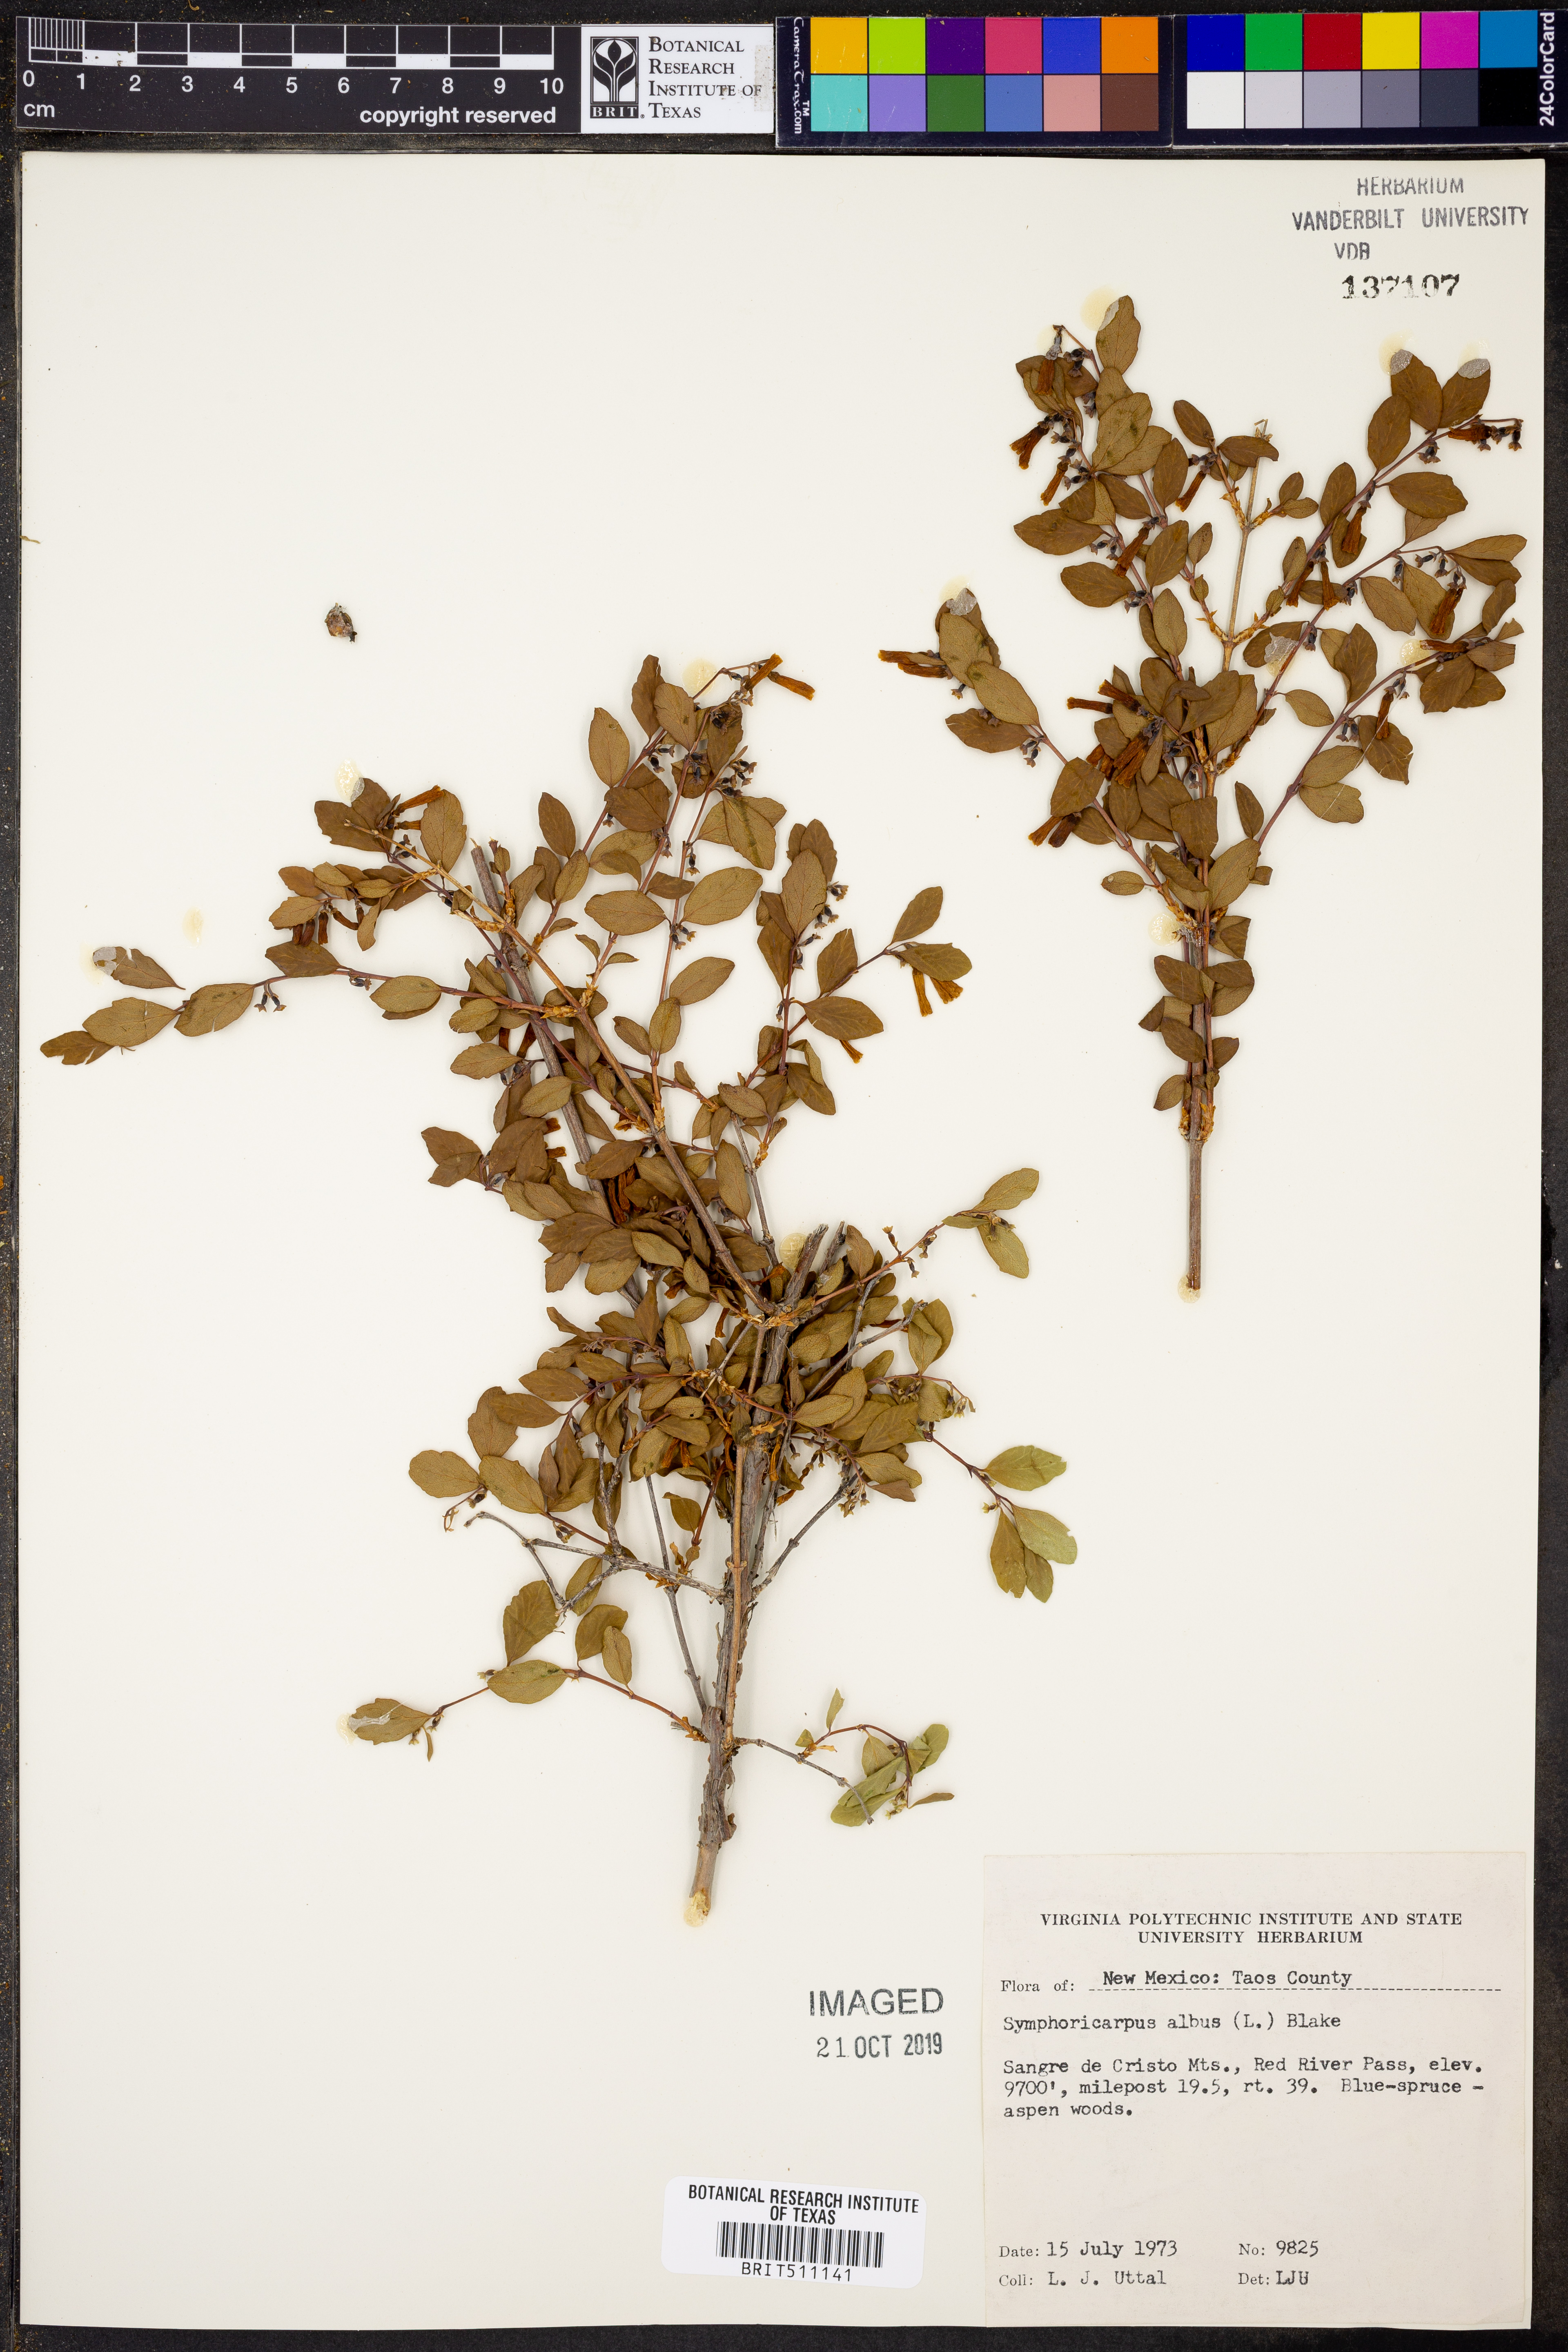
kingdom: Plantae
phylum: Tracheophyta
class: Magnoliopsida
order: Dipsacales
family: Caprifoliaceae
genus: Symphoricarpos
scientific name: Symphoricarpos albus
